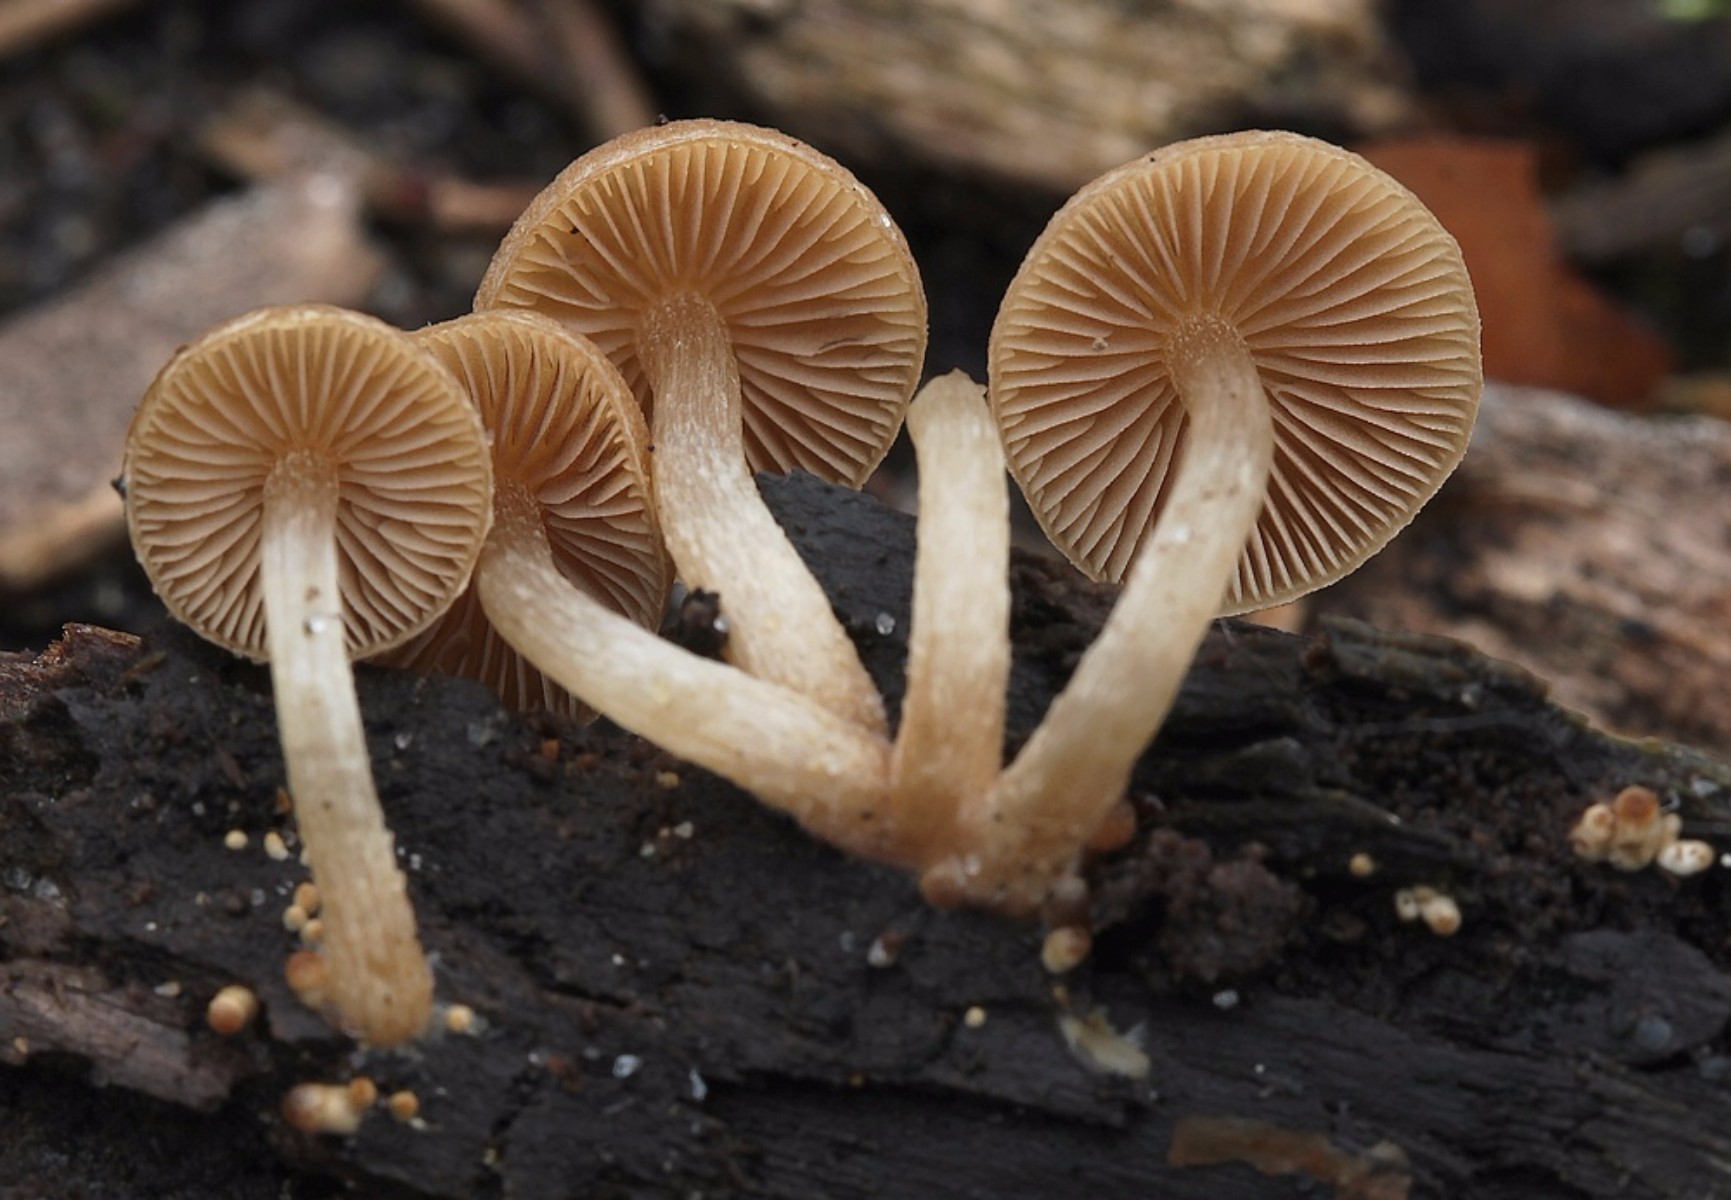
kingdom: Fungi
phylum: Basidiomycota
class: Agaricomycetes
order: Agaricales
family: Psathyrellaceae
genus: Psathyrella
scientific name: Psathyrella
